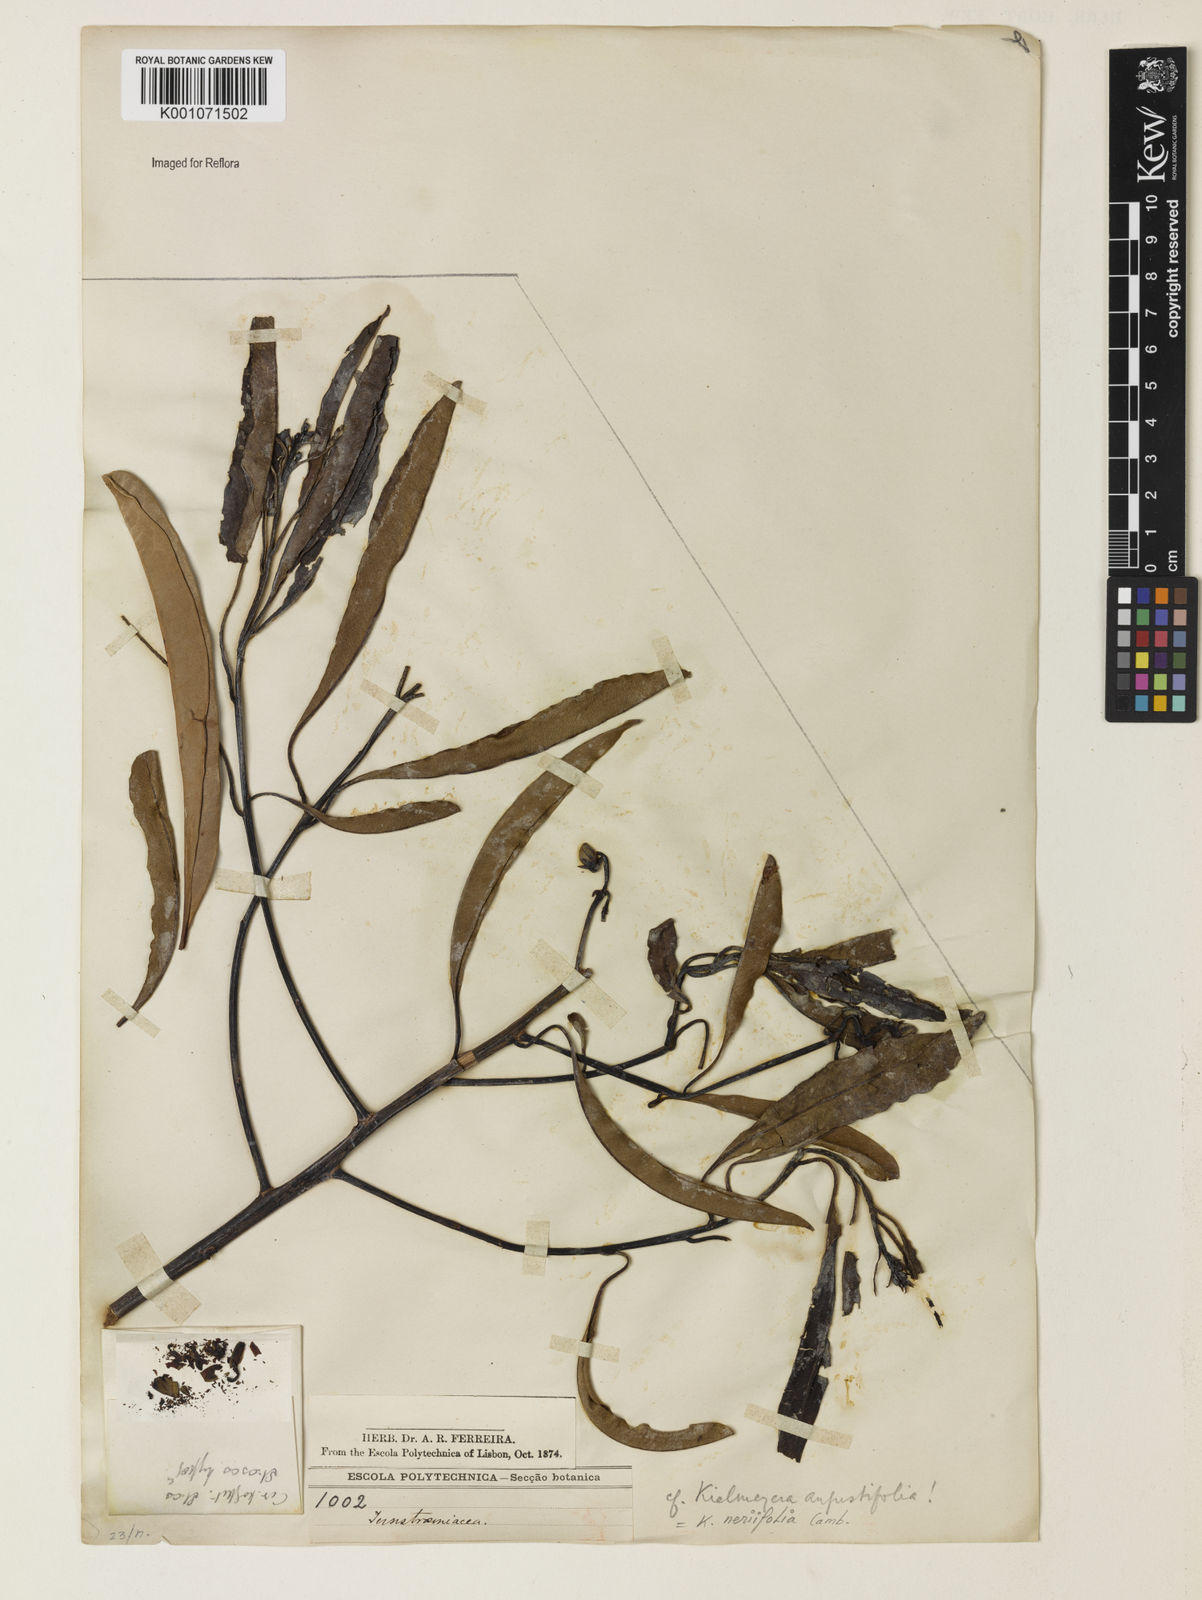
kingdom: Plantae
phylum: Tracheophyta
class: Magnoliopsida
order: Malpighiales
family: Calophyllaceae
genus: Kielmeyera
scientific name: Kielmeyera neriifolia
